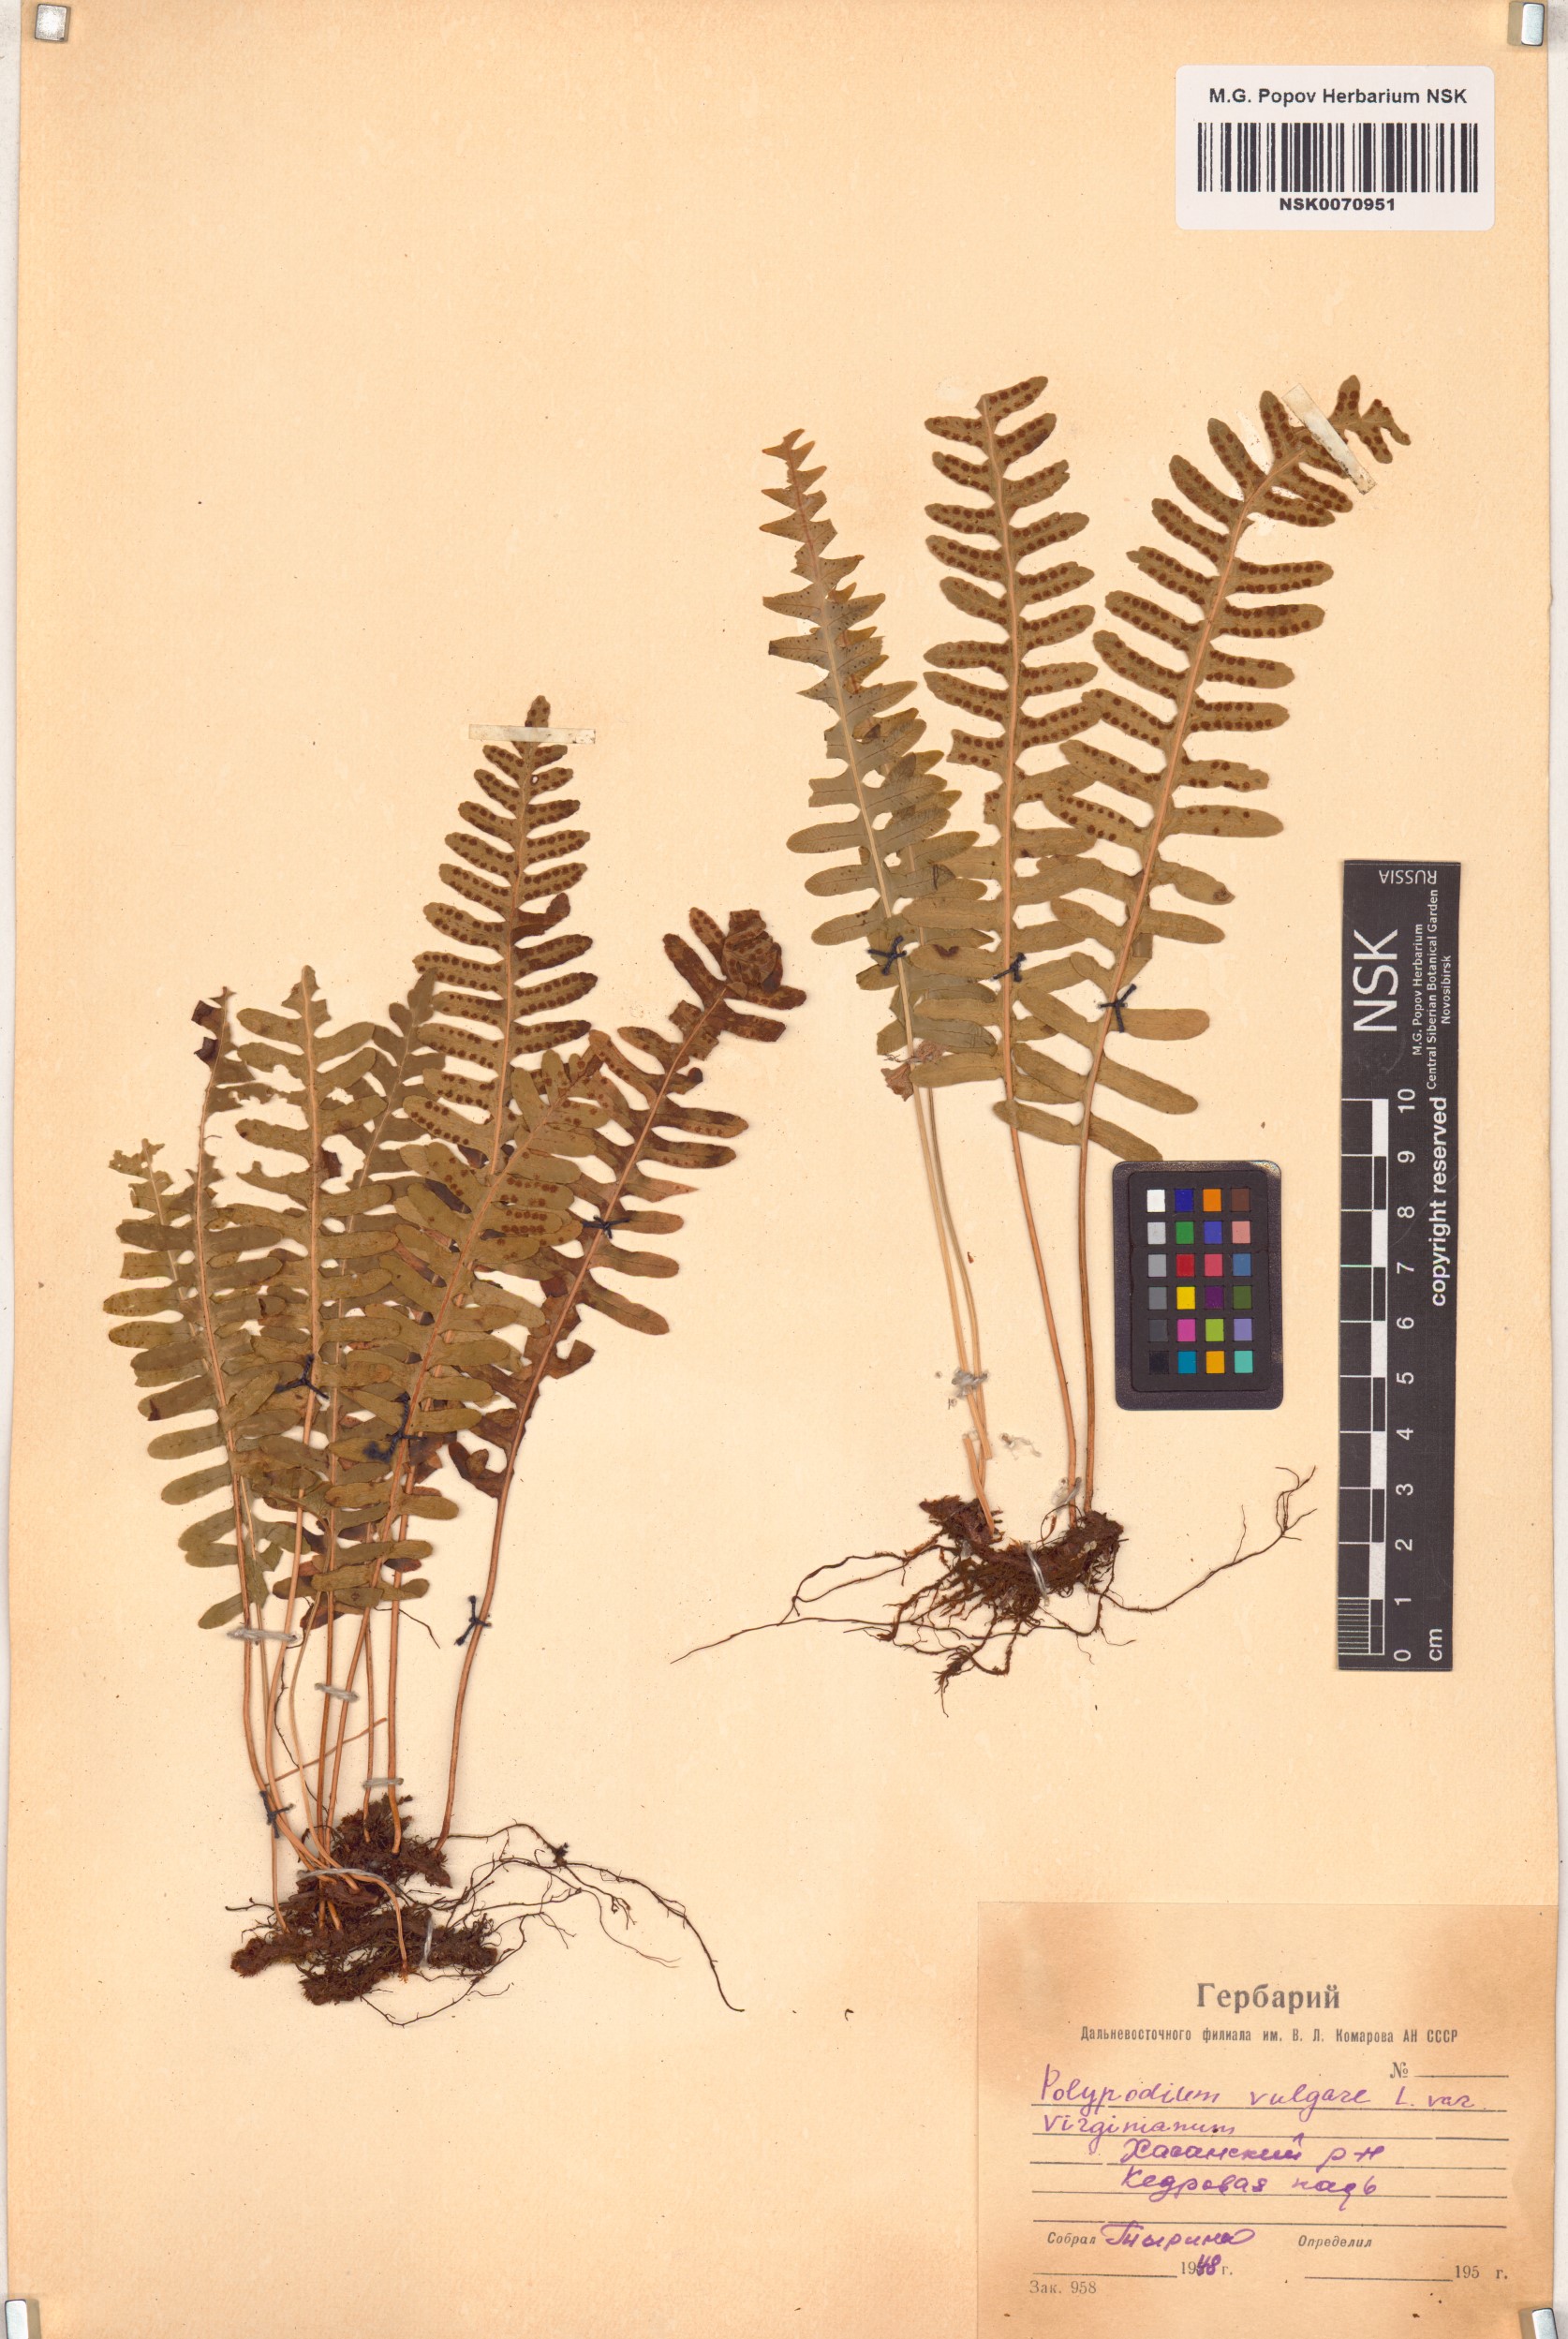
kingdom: Plantae
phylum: Tracheophyta
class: Polypodiopsida
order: Polypodiales
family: Polypodiaceae
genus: Polypodium
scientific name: Polypodium virginianum
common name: American wall fern
